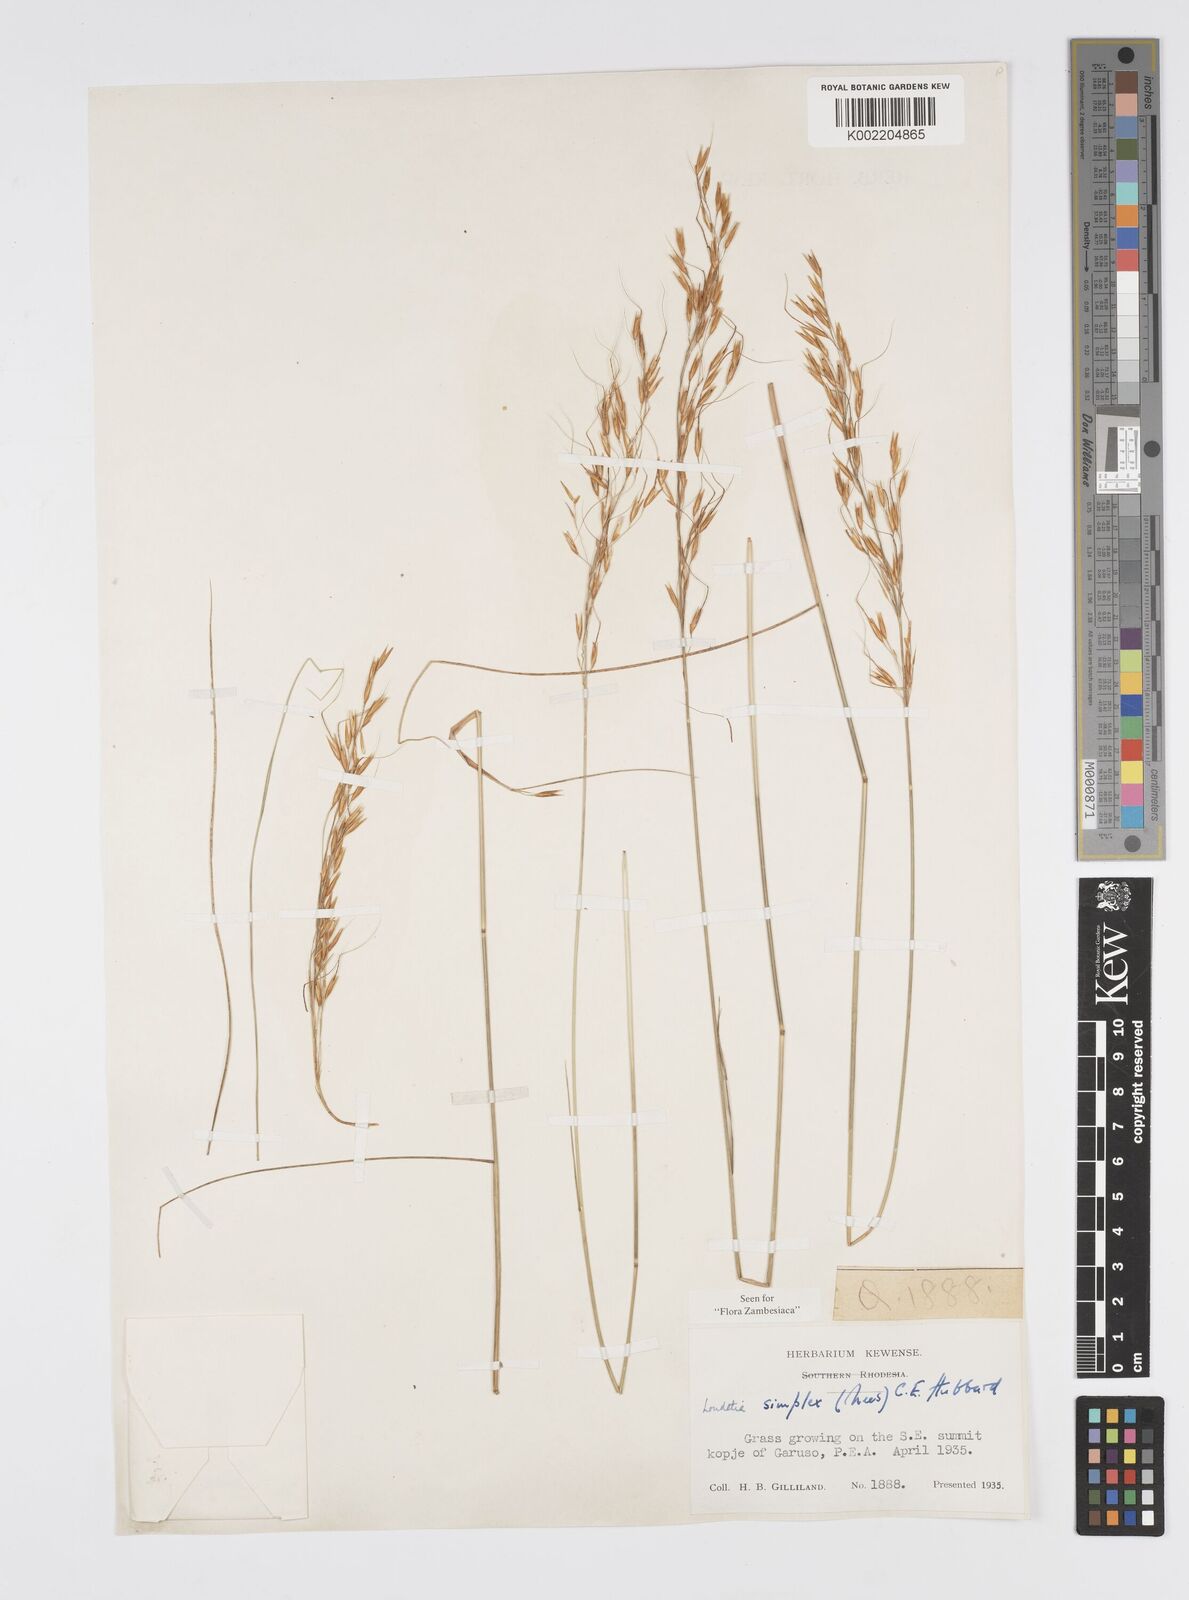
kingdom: Plantae
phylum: Tracheophyta
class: Liliopsida
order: Poales
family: Poaceae
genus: Loudetia
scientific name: Loudetia simplex
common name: Common russet grass
